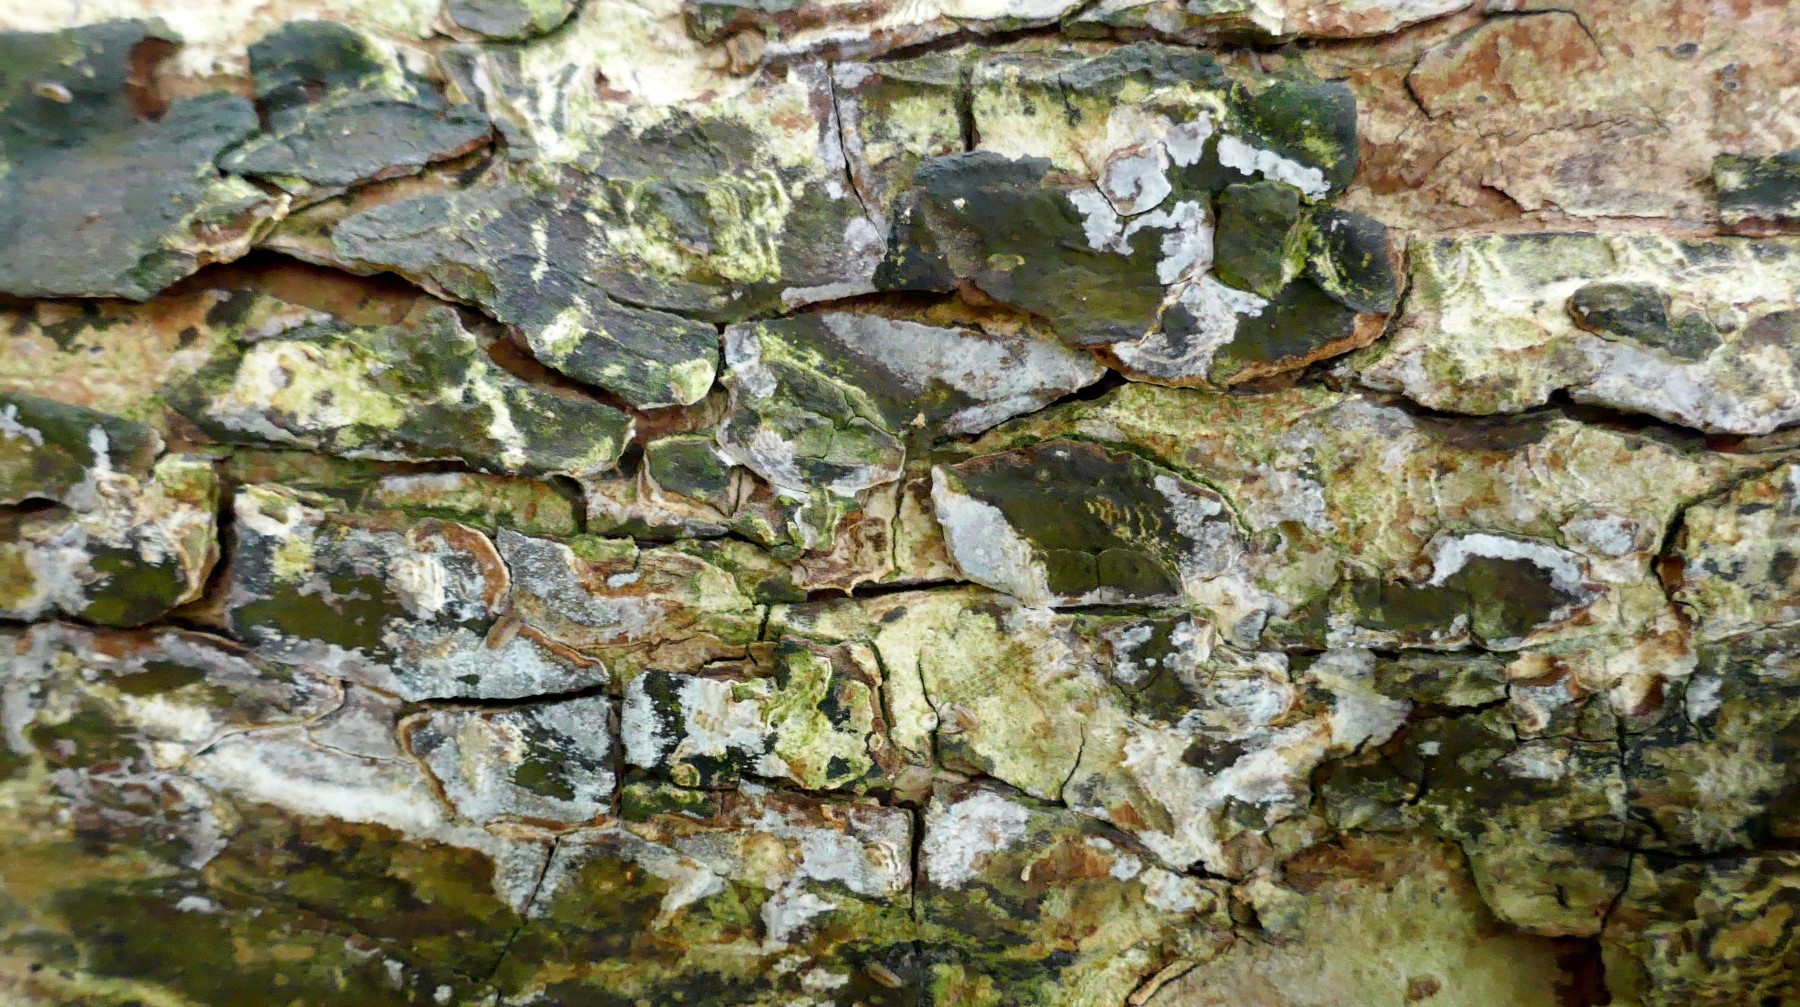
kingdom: Fungi
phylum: Basidiomycota
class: Agaricomycetes
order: Agaricales
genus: Dendrothele
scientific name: Dendrothele acerina
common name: navr-kalkplet
